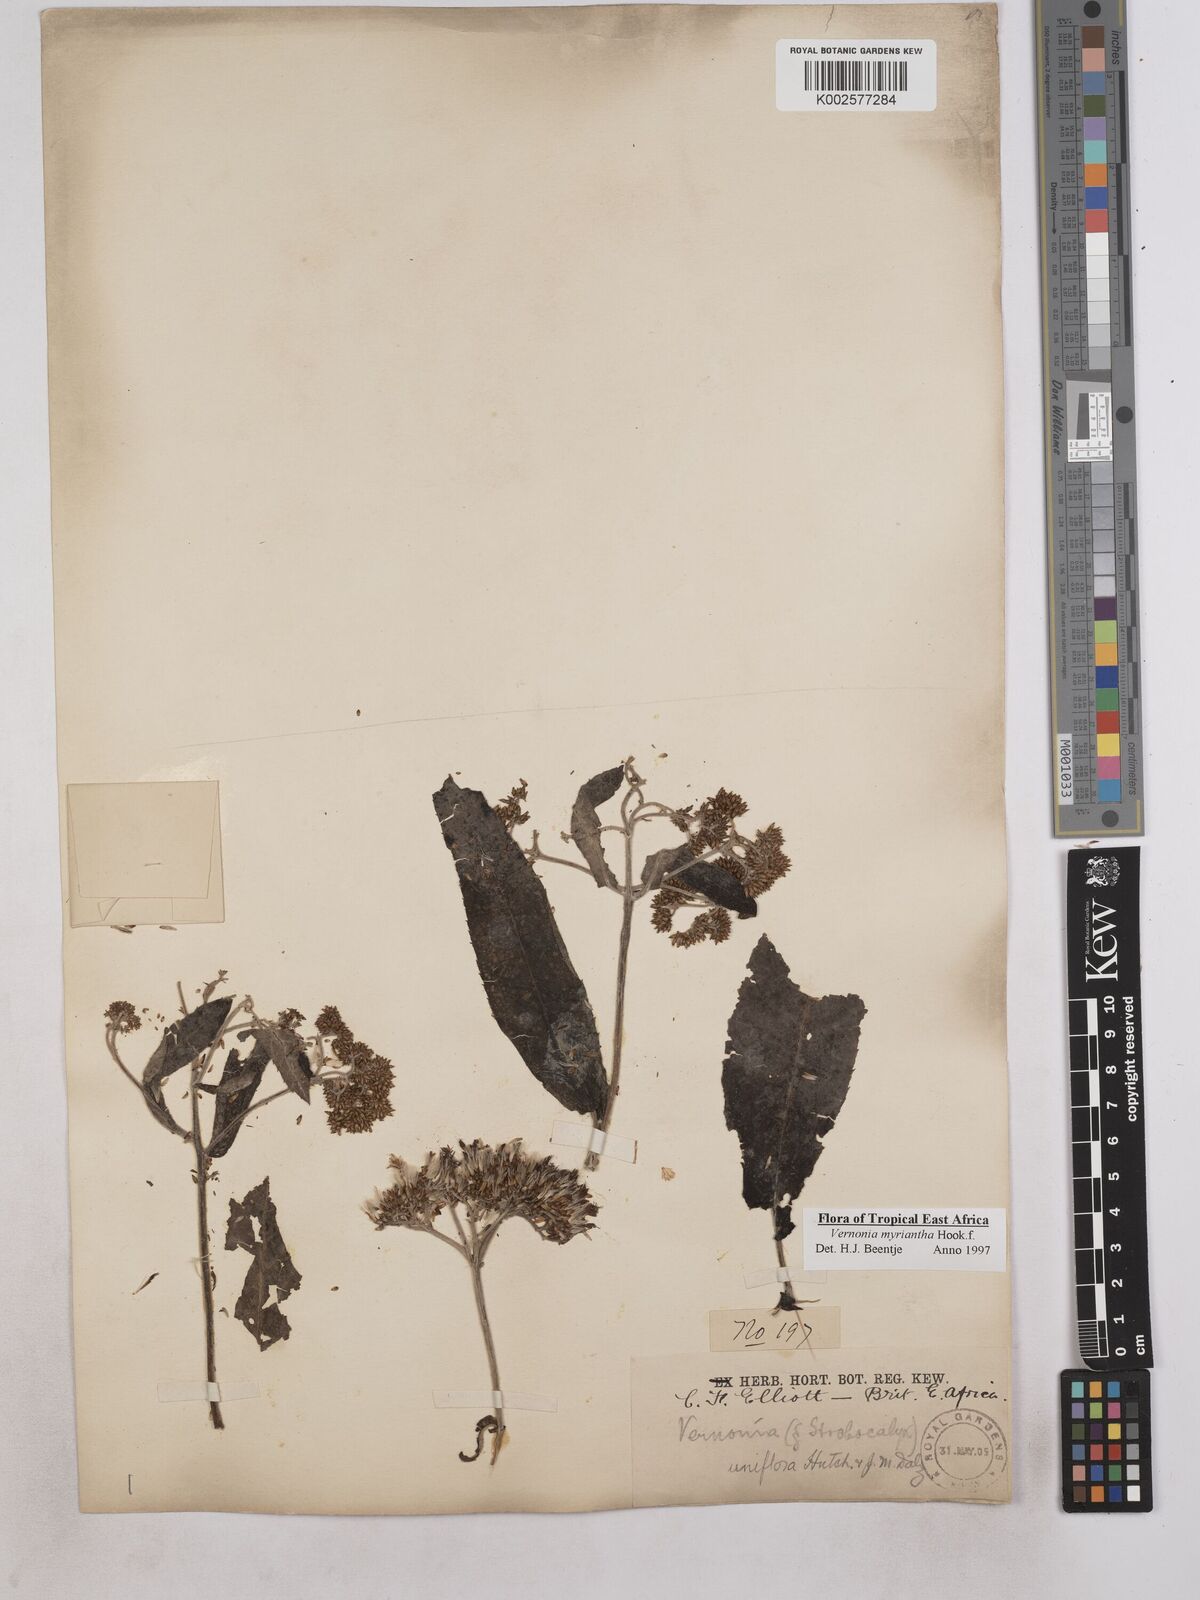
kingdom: Plantae
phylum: Tracheophyta
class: Magnoliopsida
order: Asterales
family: Asteraceae
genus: Gymnanthemum
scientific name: Gymnanthemum myrianthum
